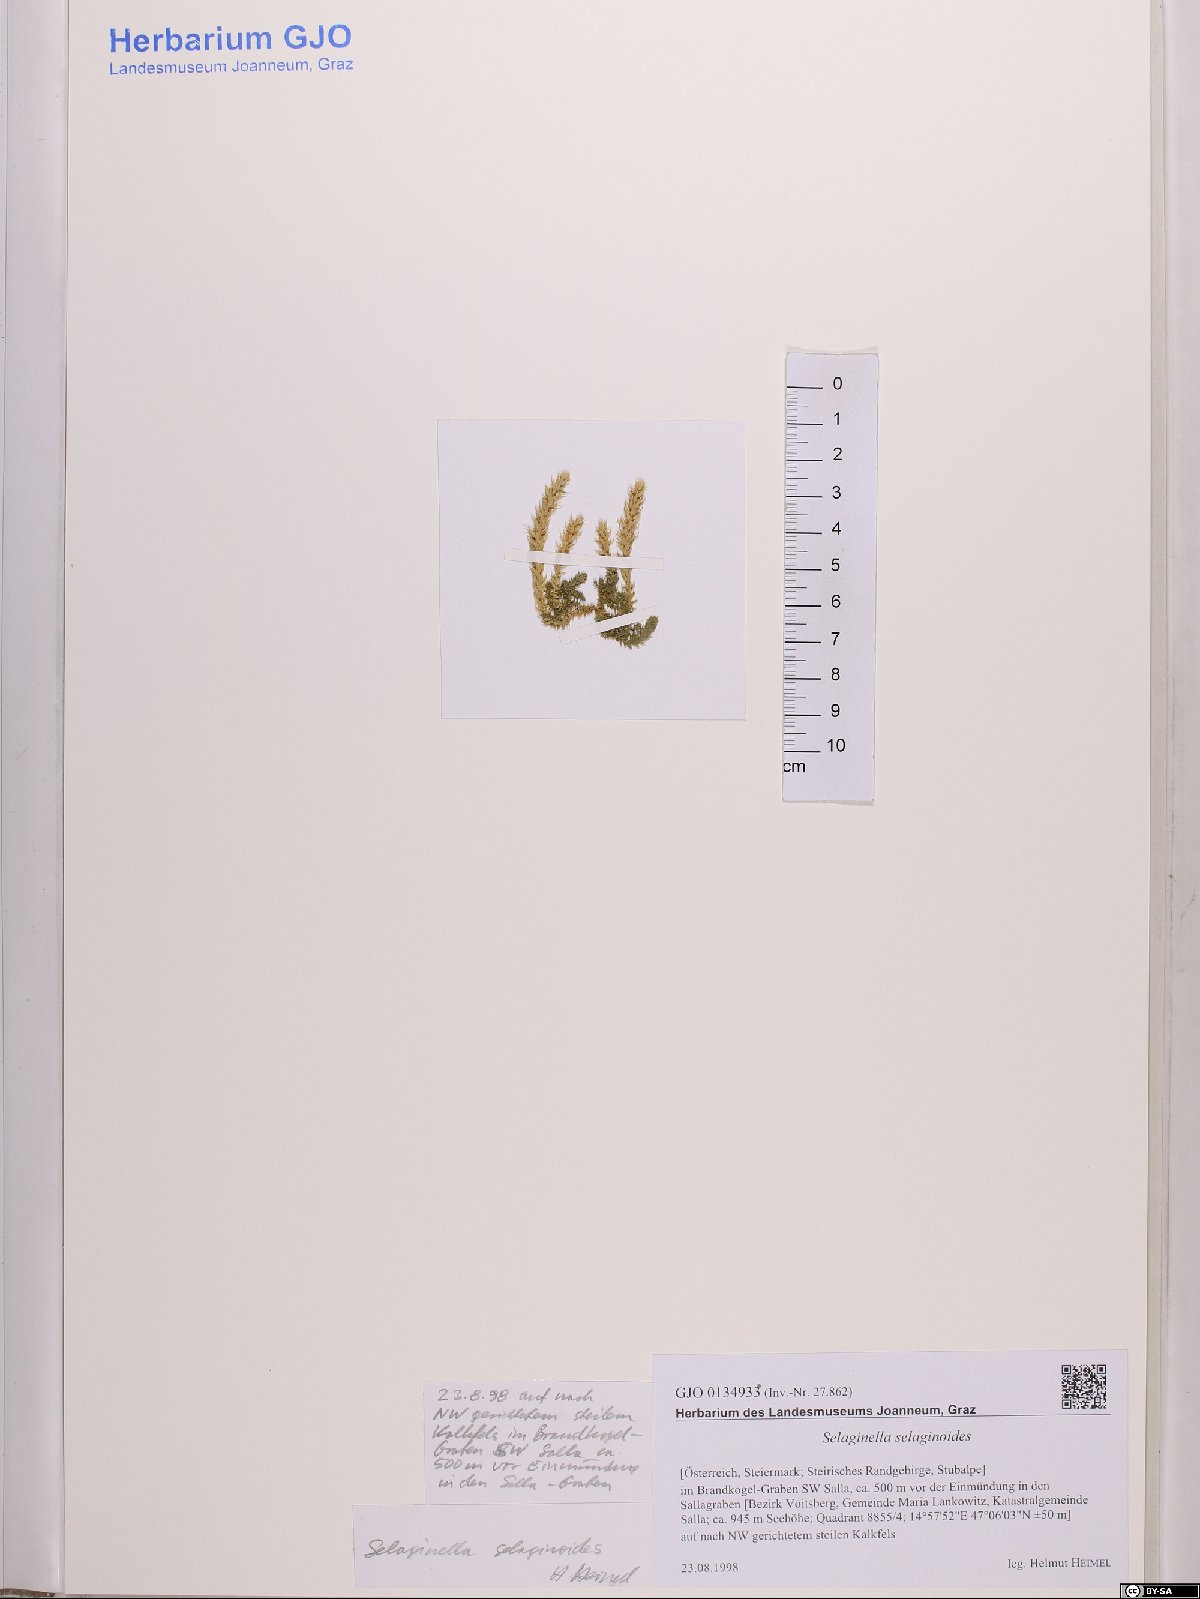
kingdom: Plantae
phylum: Tracheophyta
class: Lycopodiopsida
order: Selaginellales
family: Selaginellaceae
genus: Selaginella
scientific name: Selaginella selaginoides
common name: Prickly mountain-moss
